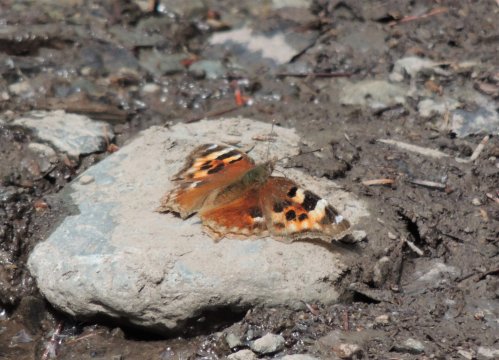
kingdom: Animalia
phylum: Arthropoda
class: Insecta
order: Lepidoptera
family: Nymphalidae
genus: Polygonia
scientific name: Polygonia vaualbum
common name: Compton Tortoiseshell
